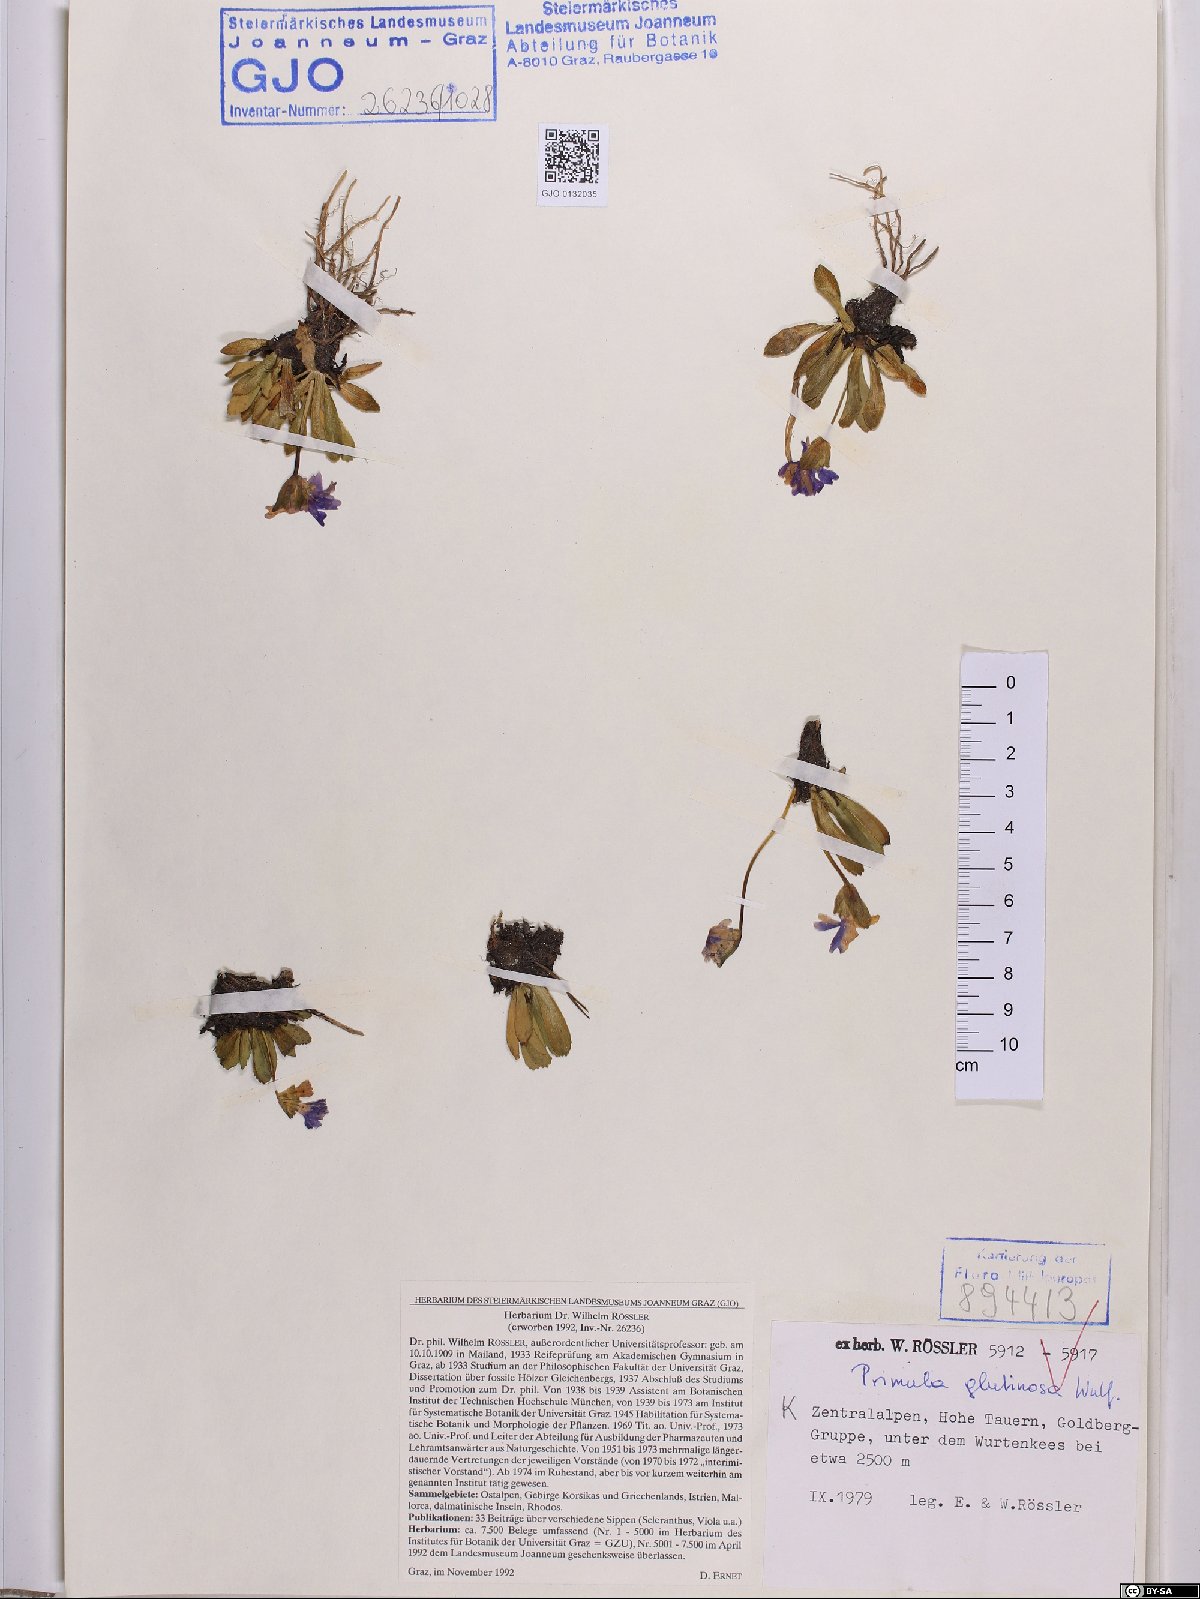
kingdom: Plantae
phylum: Tracheophyta
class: Magnoliopsida
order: Ericales
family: Primulaceae
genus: Primula
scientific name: Primula glutinosa
